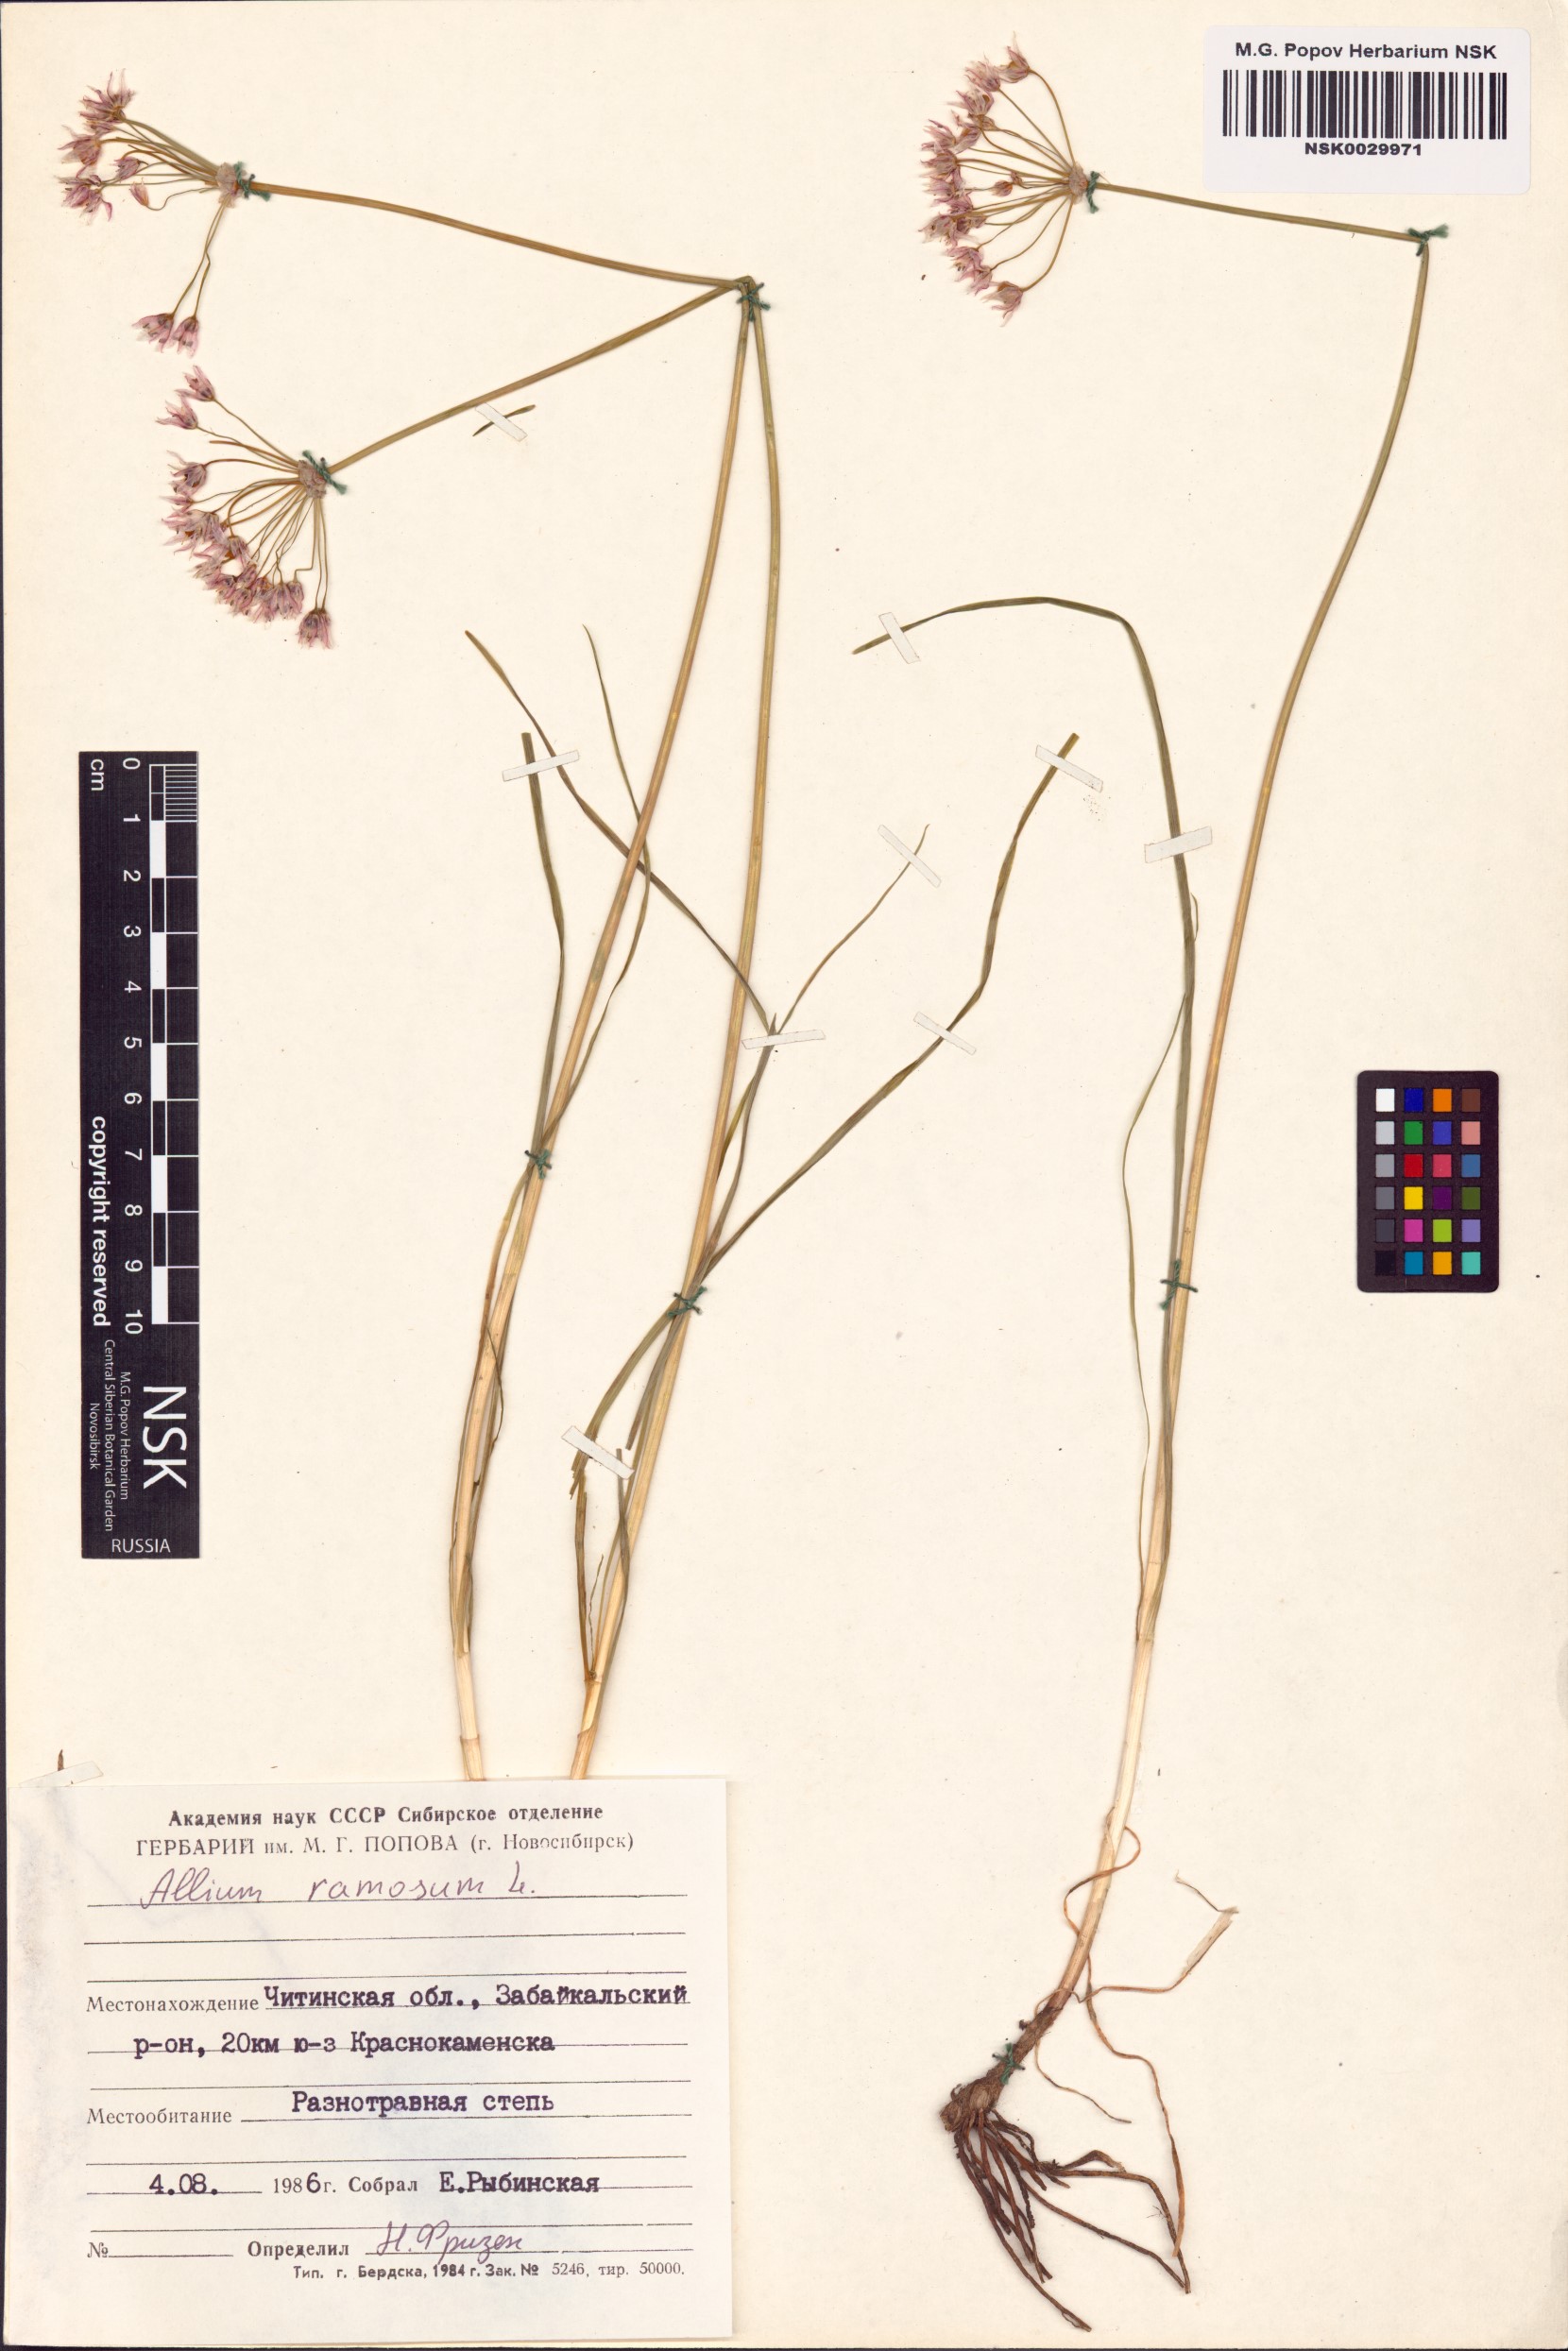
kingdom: Plantae
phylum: Tracheophyta
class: Liliopsida
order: Asparagales
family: Amaryllidaceae
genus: Allium
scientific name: Allium ramosum
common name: Fragrant garlic
